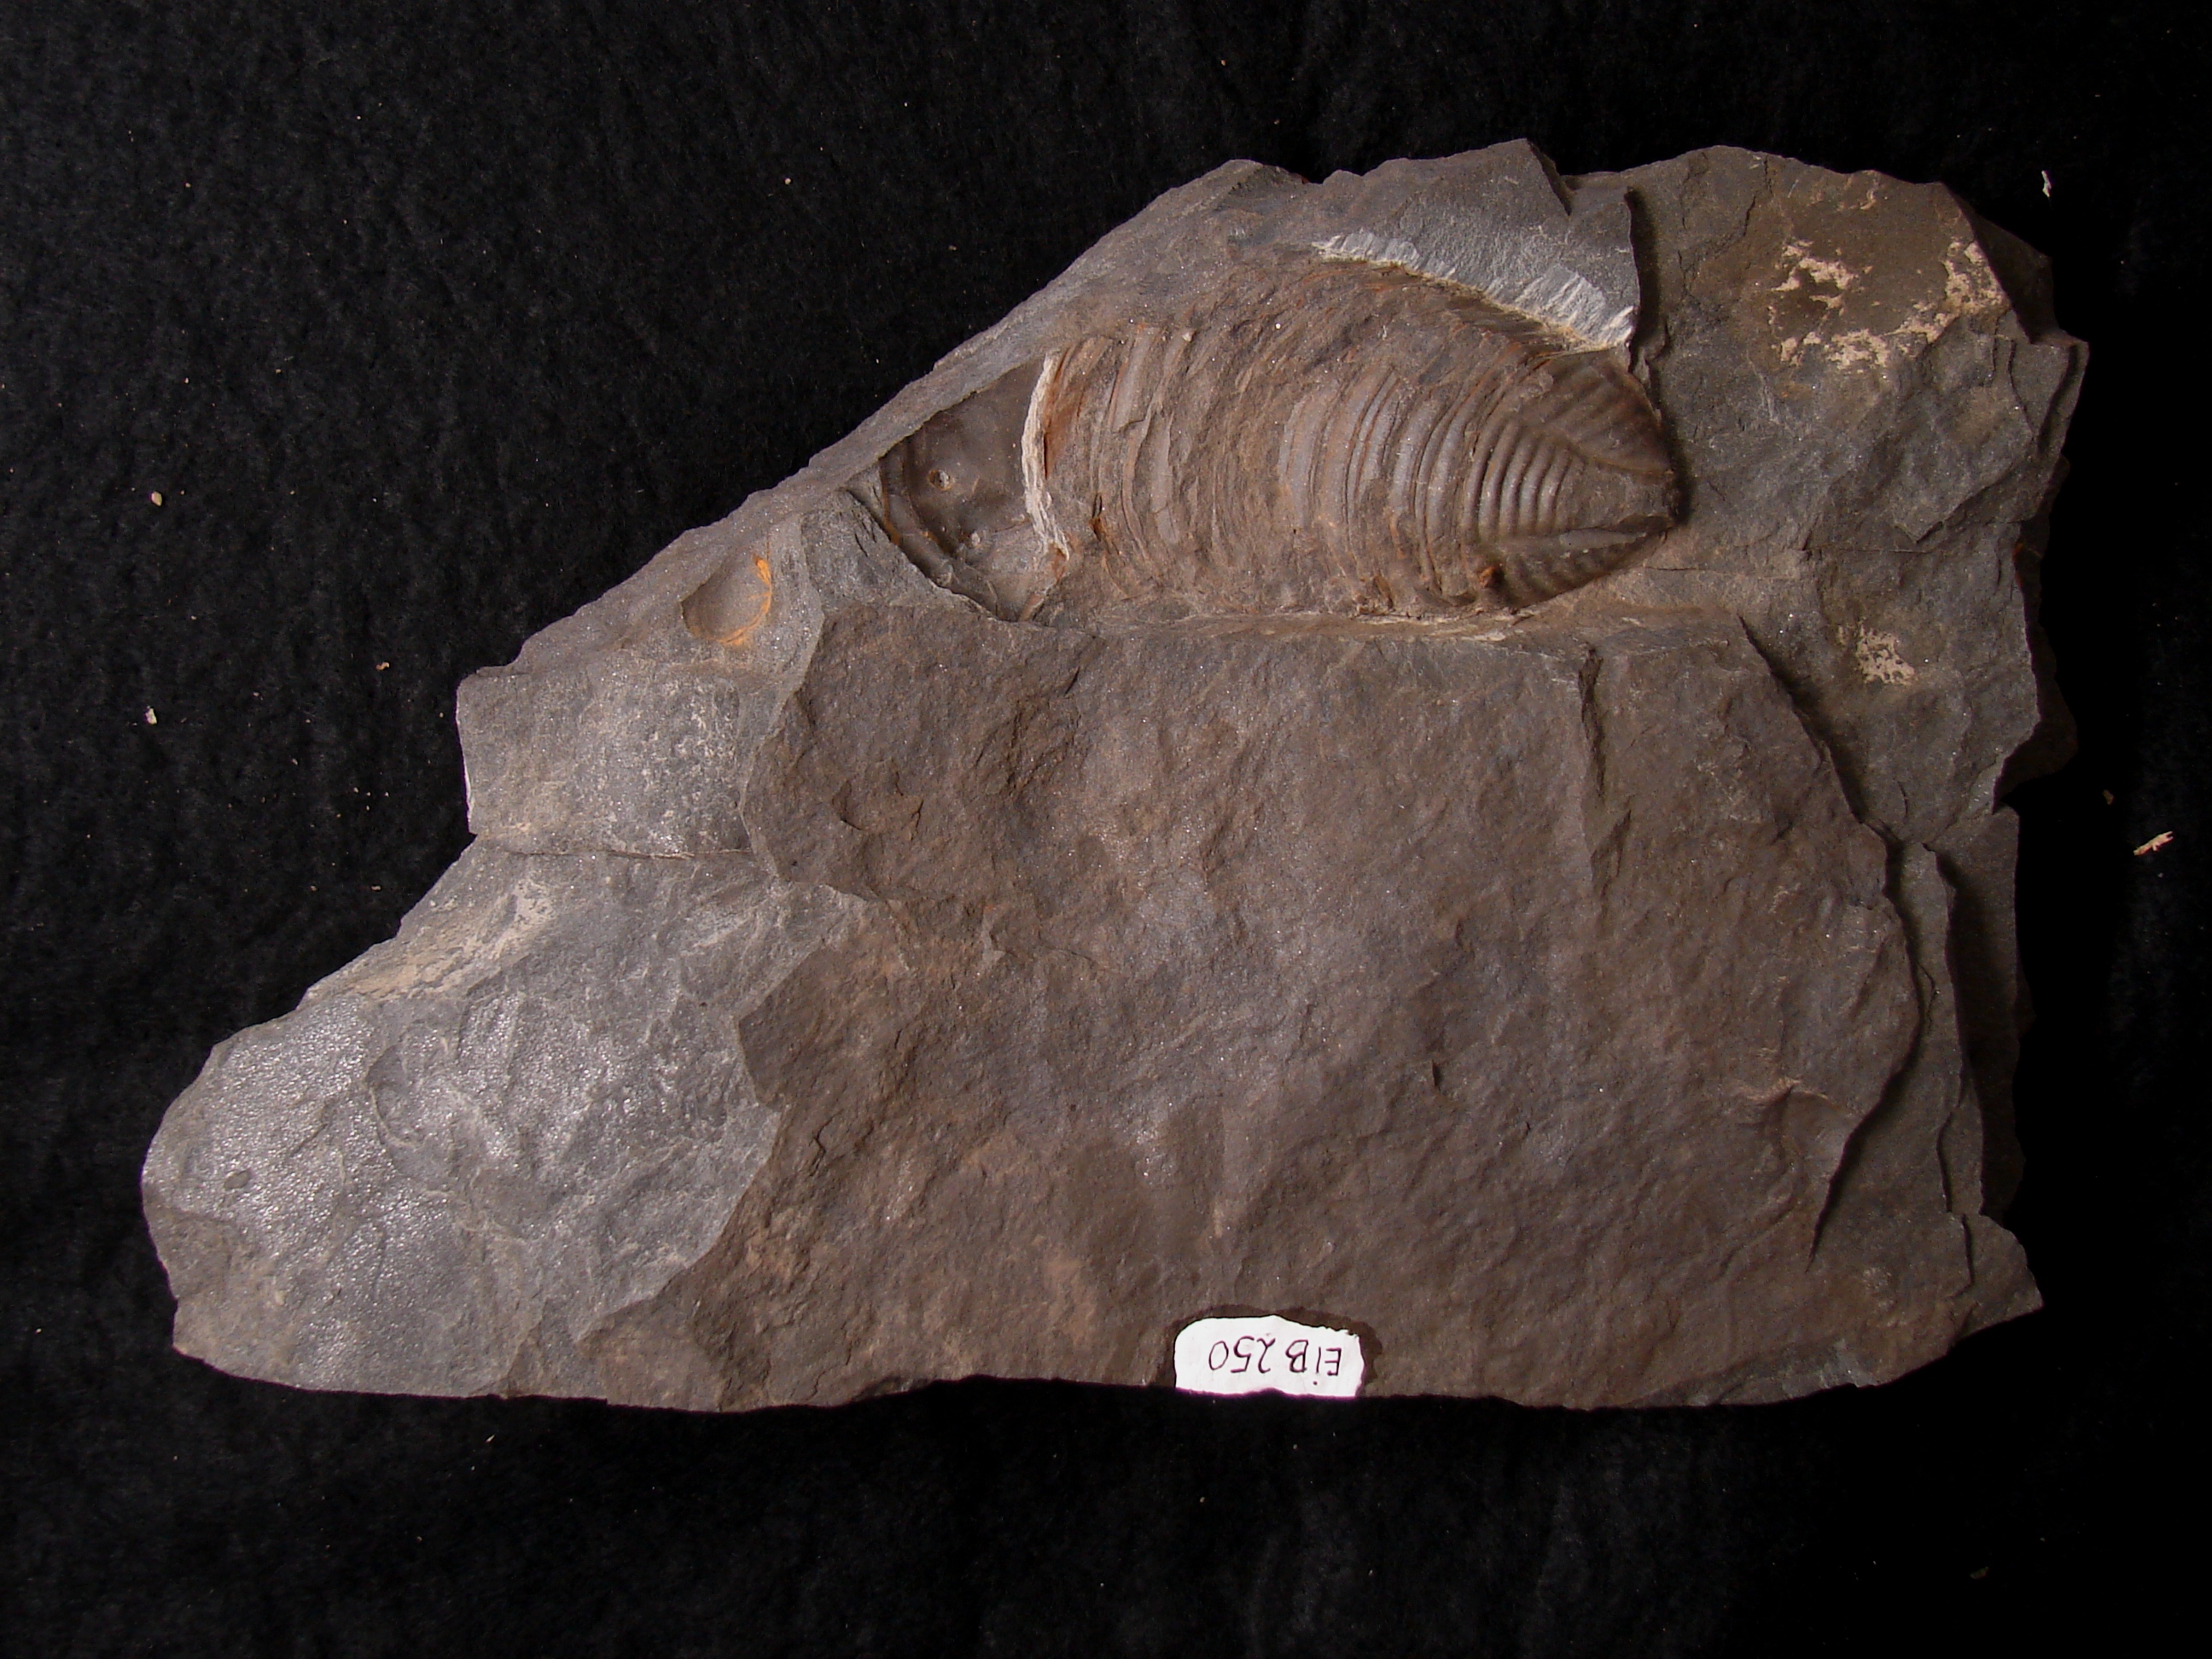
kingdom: Animalia
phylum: Arthropoda
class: Trilobita
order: Phacopida
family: Bathycheilidae
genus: Burmeisterella
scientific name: Burmeisterella
